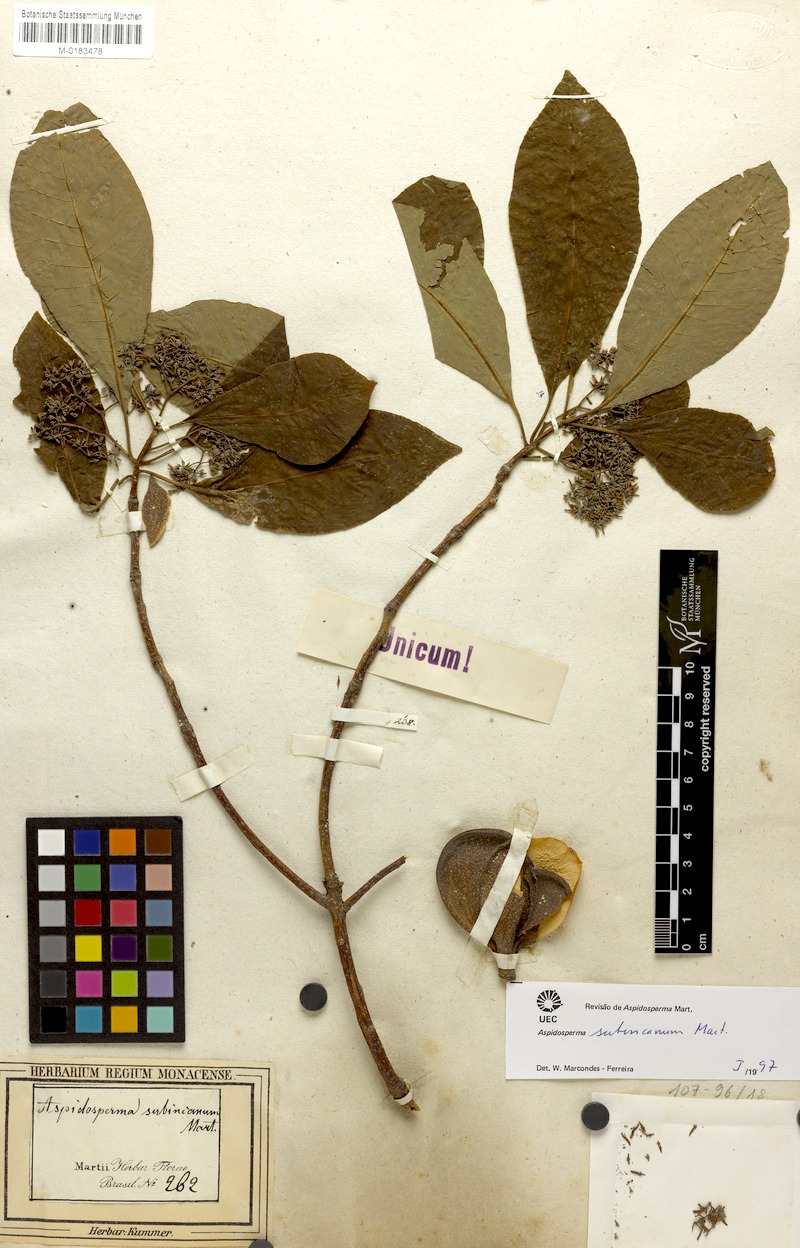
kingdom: Plantae
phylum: Tracheophyta
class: Magnoliopsida
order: Gentianales
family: Apocynaceae
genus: Aspidosperma
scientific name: Aspidosperma subincanum
